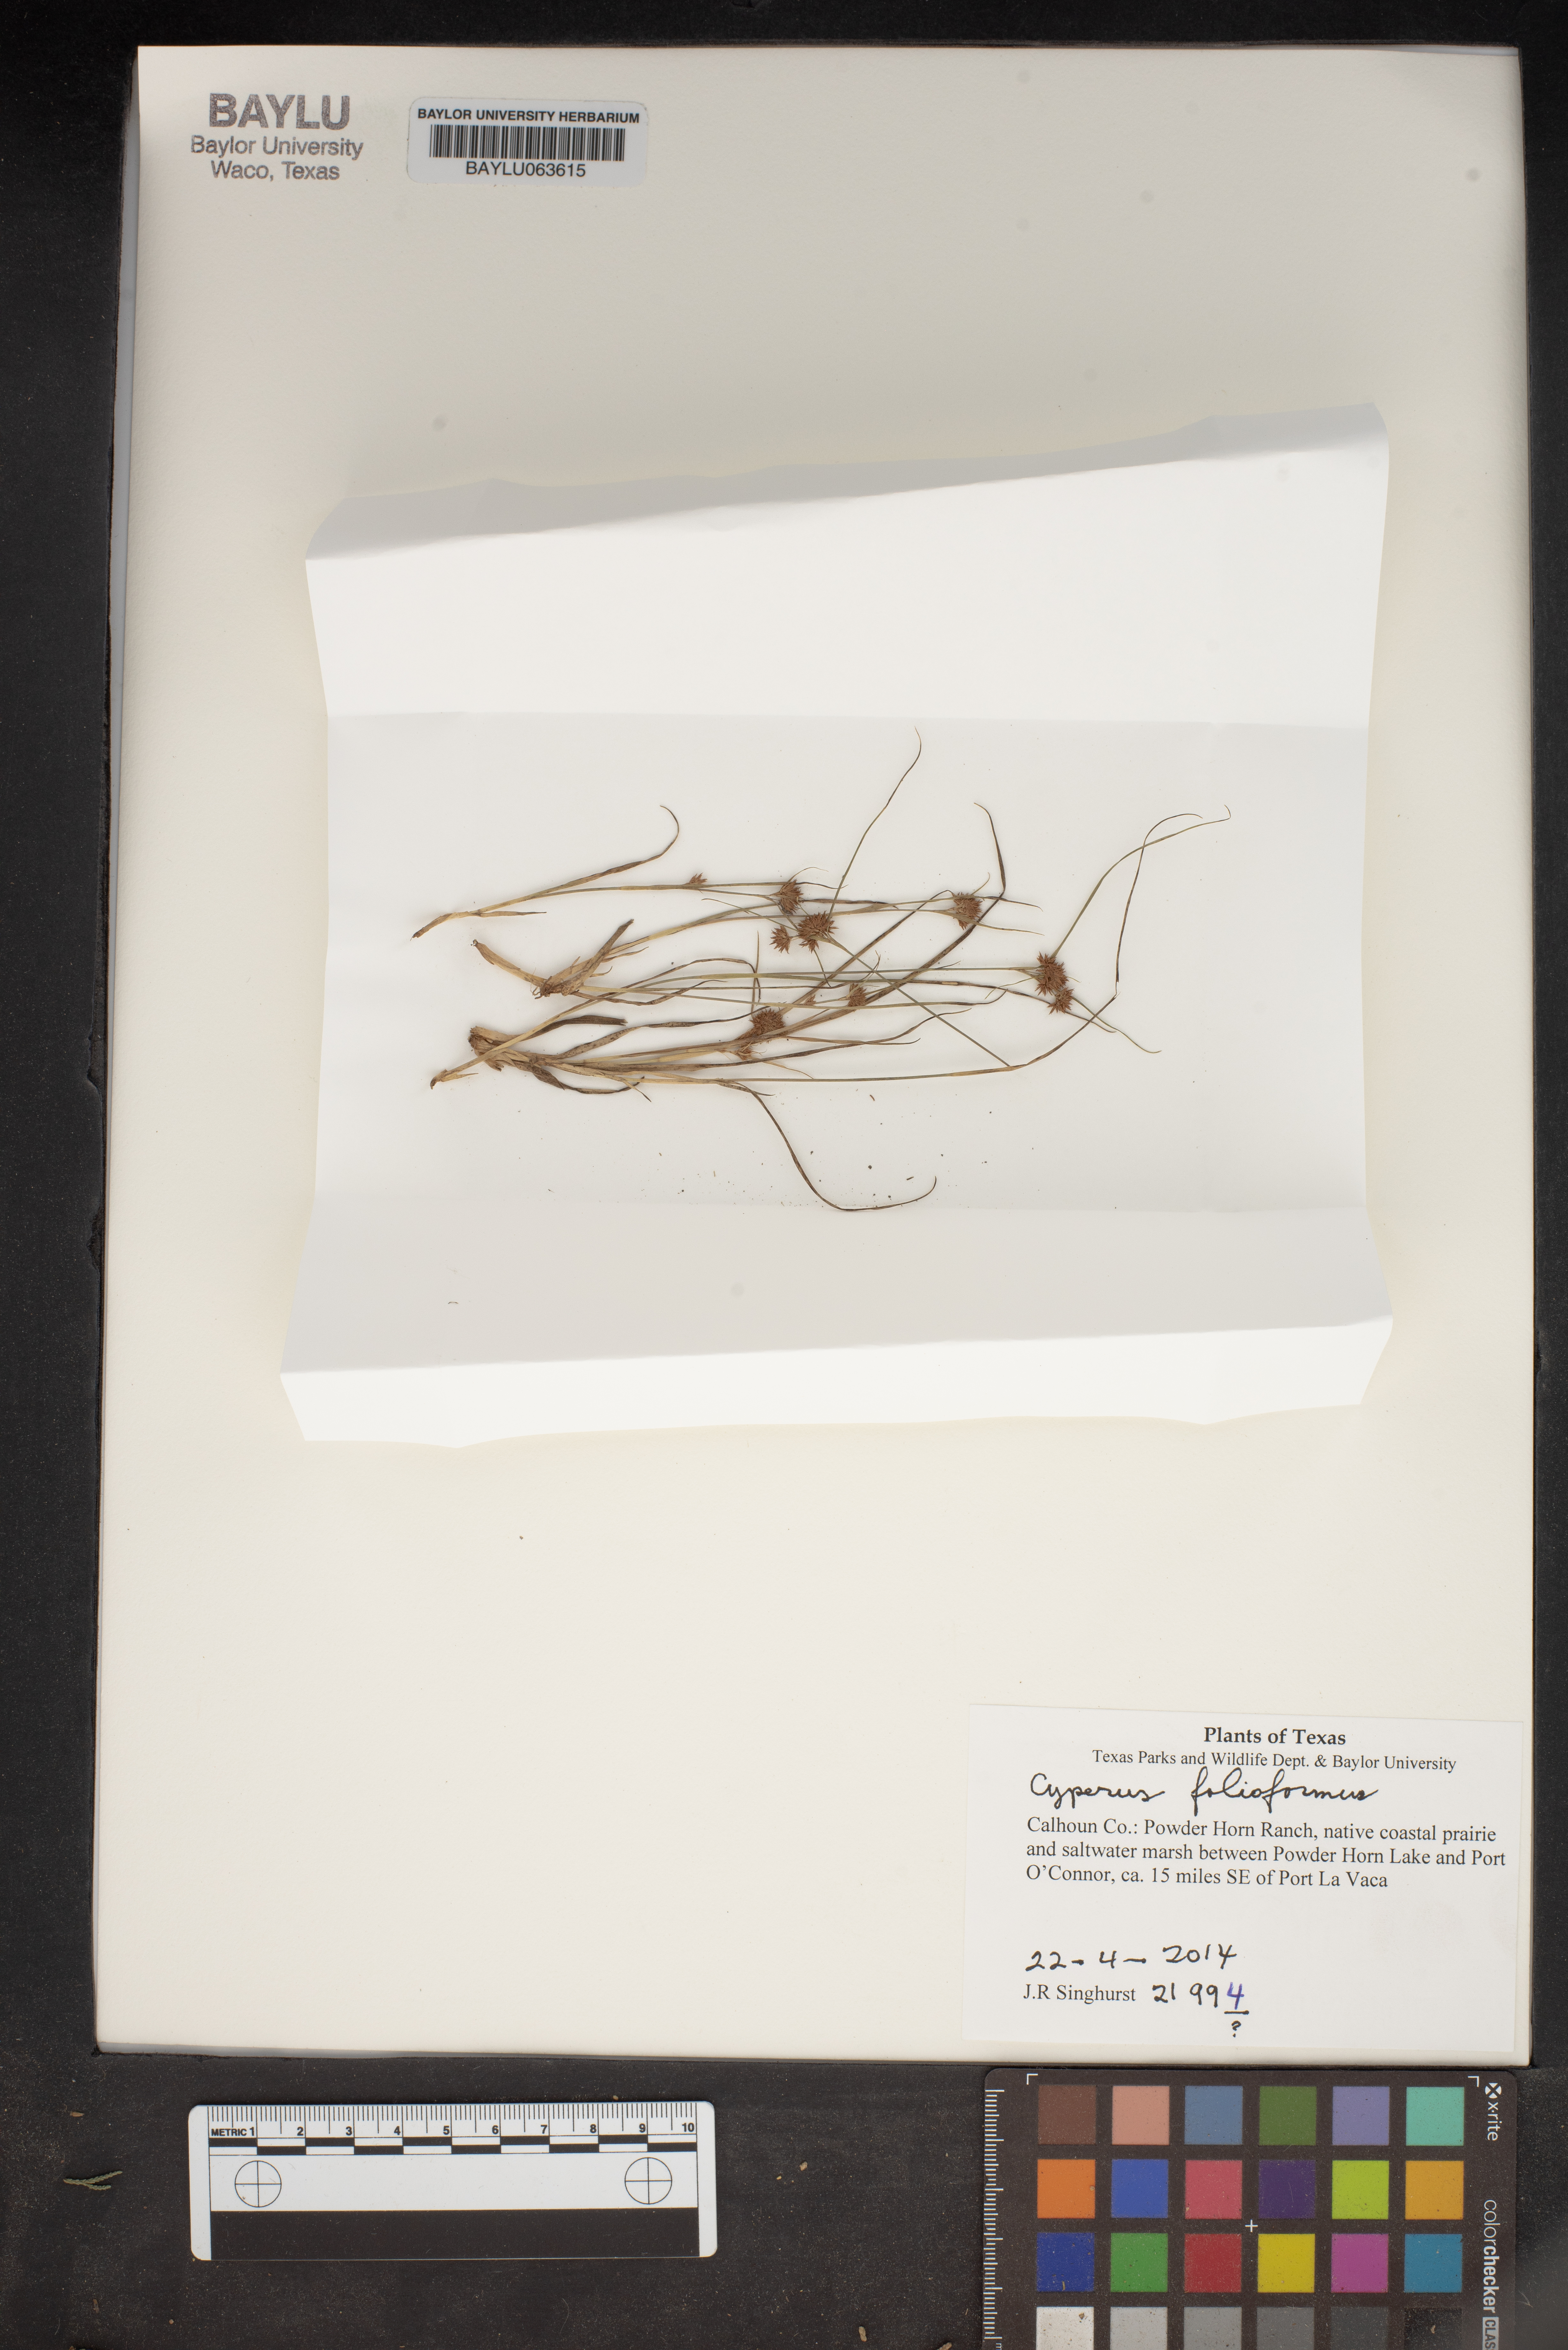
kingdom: Plantae
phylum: Tracheophyta
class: Liliopsida
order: Poales
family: Cyperaceae
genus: Cyperus
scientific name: Cyperus
